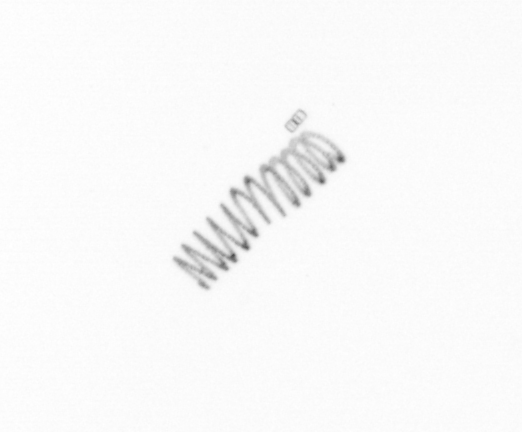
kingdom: Chromista
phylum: Ochrophyta
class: Bacillariophyceae
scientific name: Bacillariophyceae
